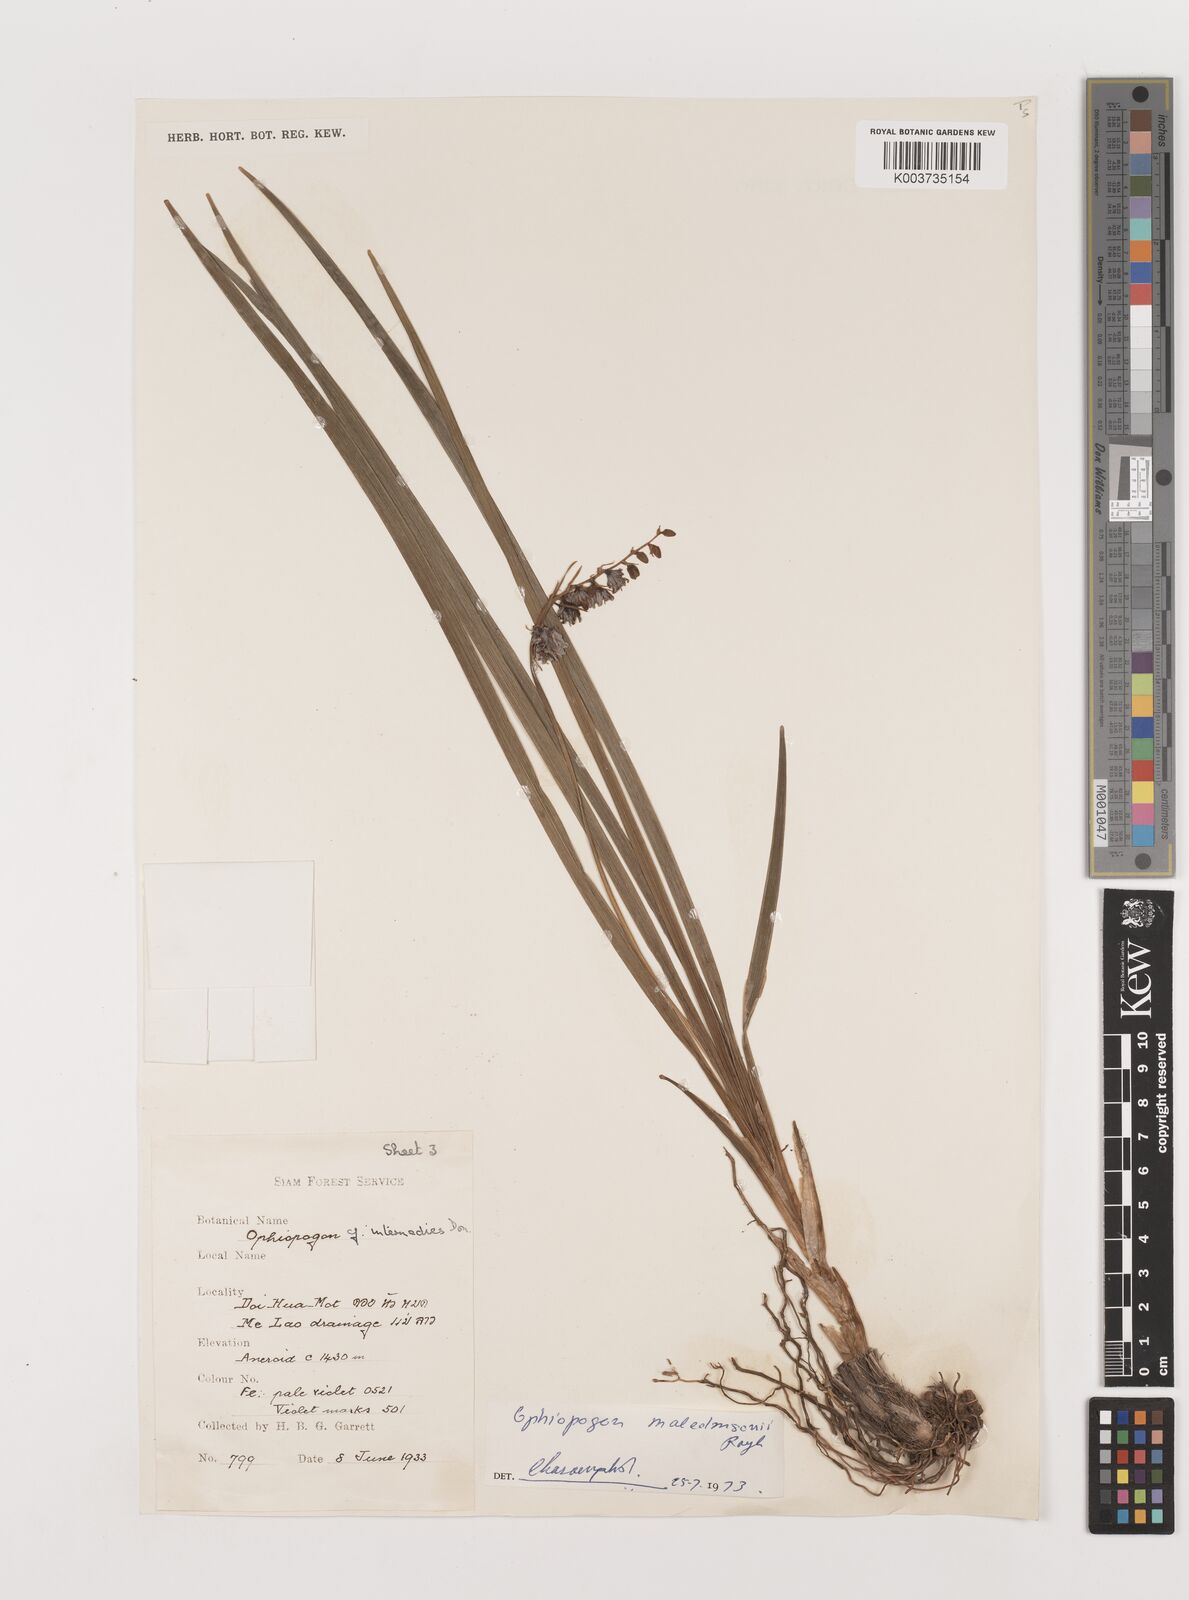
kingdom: Plantae
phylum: Tracheophyta
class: Liliopsida
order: Asparagales
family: Asparagaceae
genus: Ophiopogon
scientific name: Ophiopogon malcolmsonii
